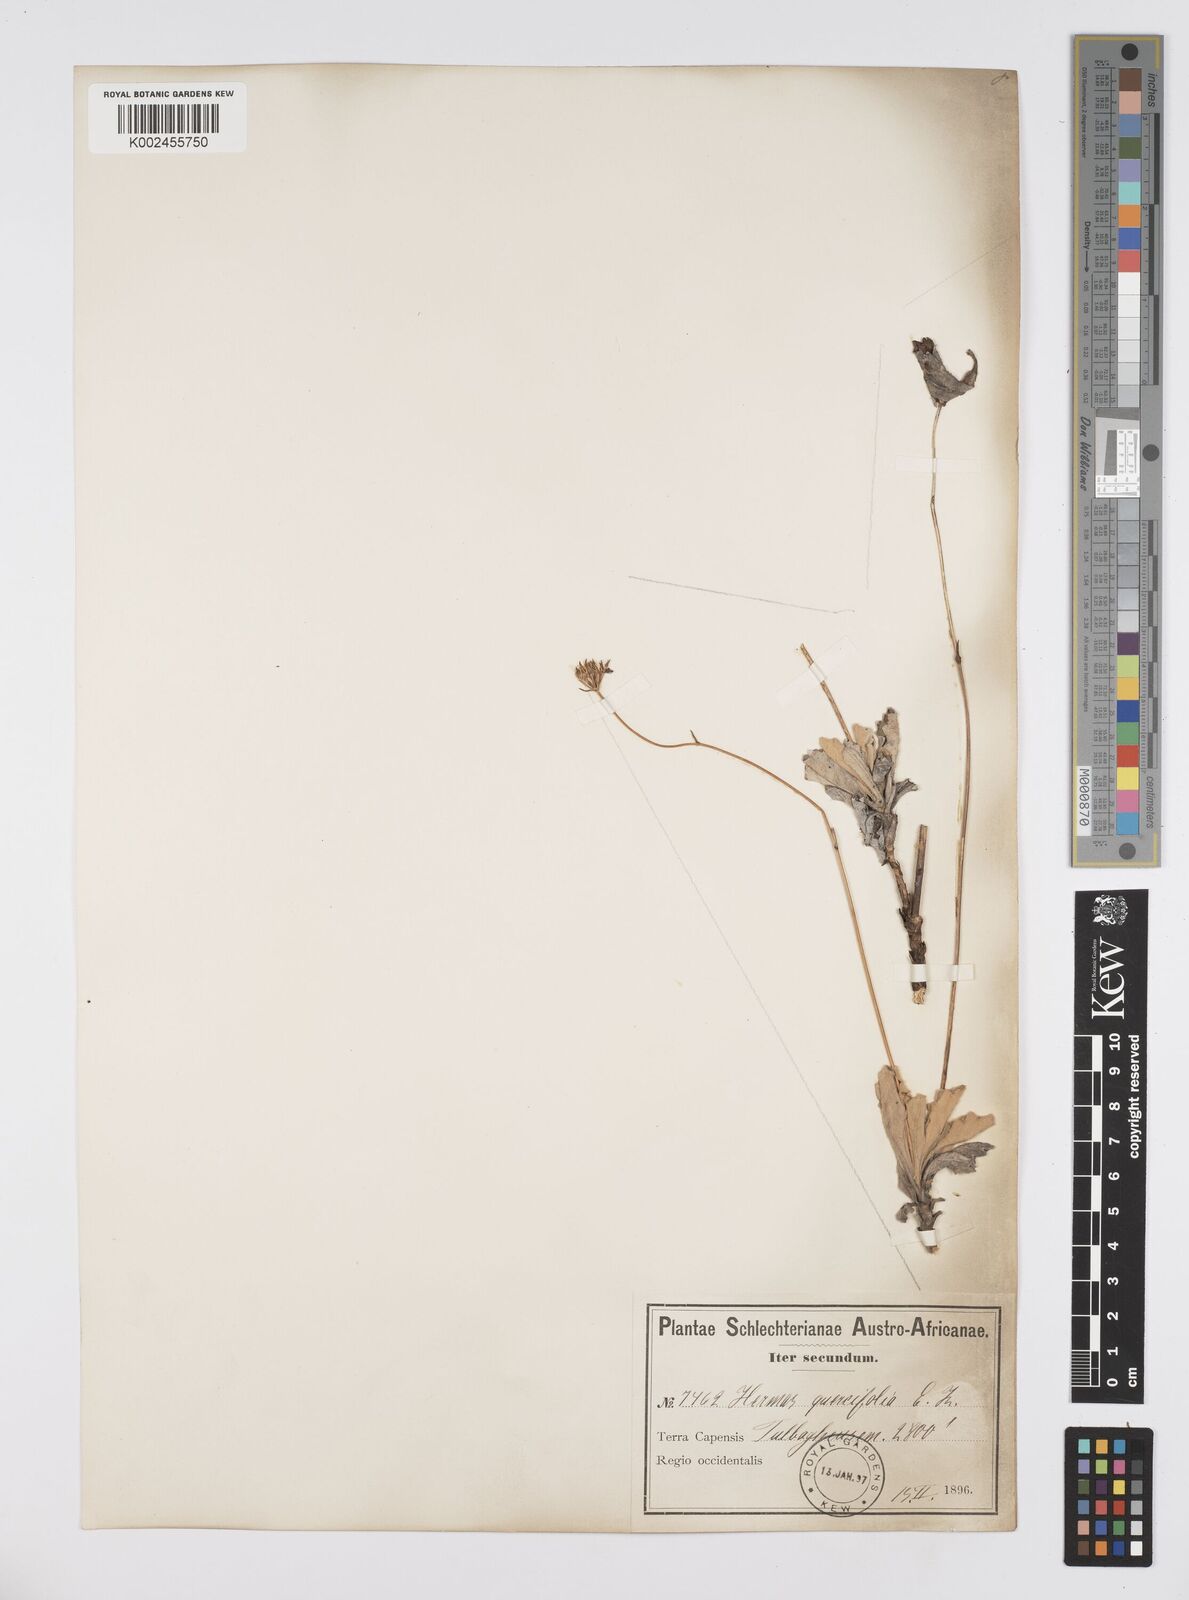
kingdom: Plantae
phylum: Tracheophyta
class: Magnoliopsida
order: Apiales
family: Apiaceae
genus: Hermas
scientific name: Hermas quinquedentata
